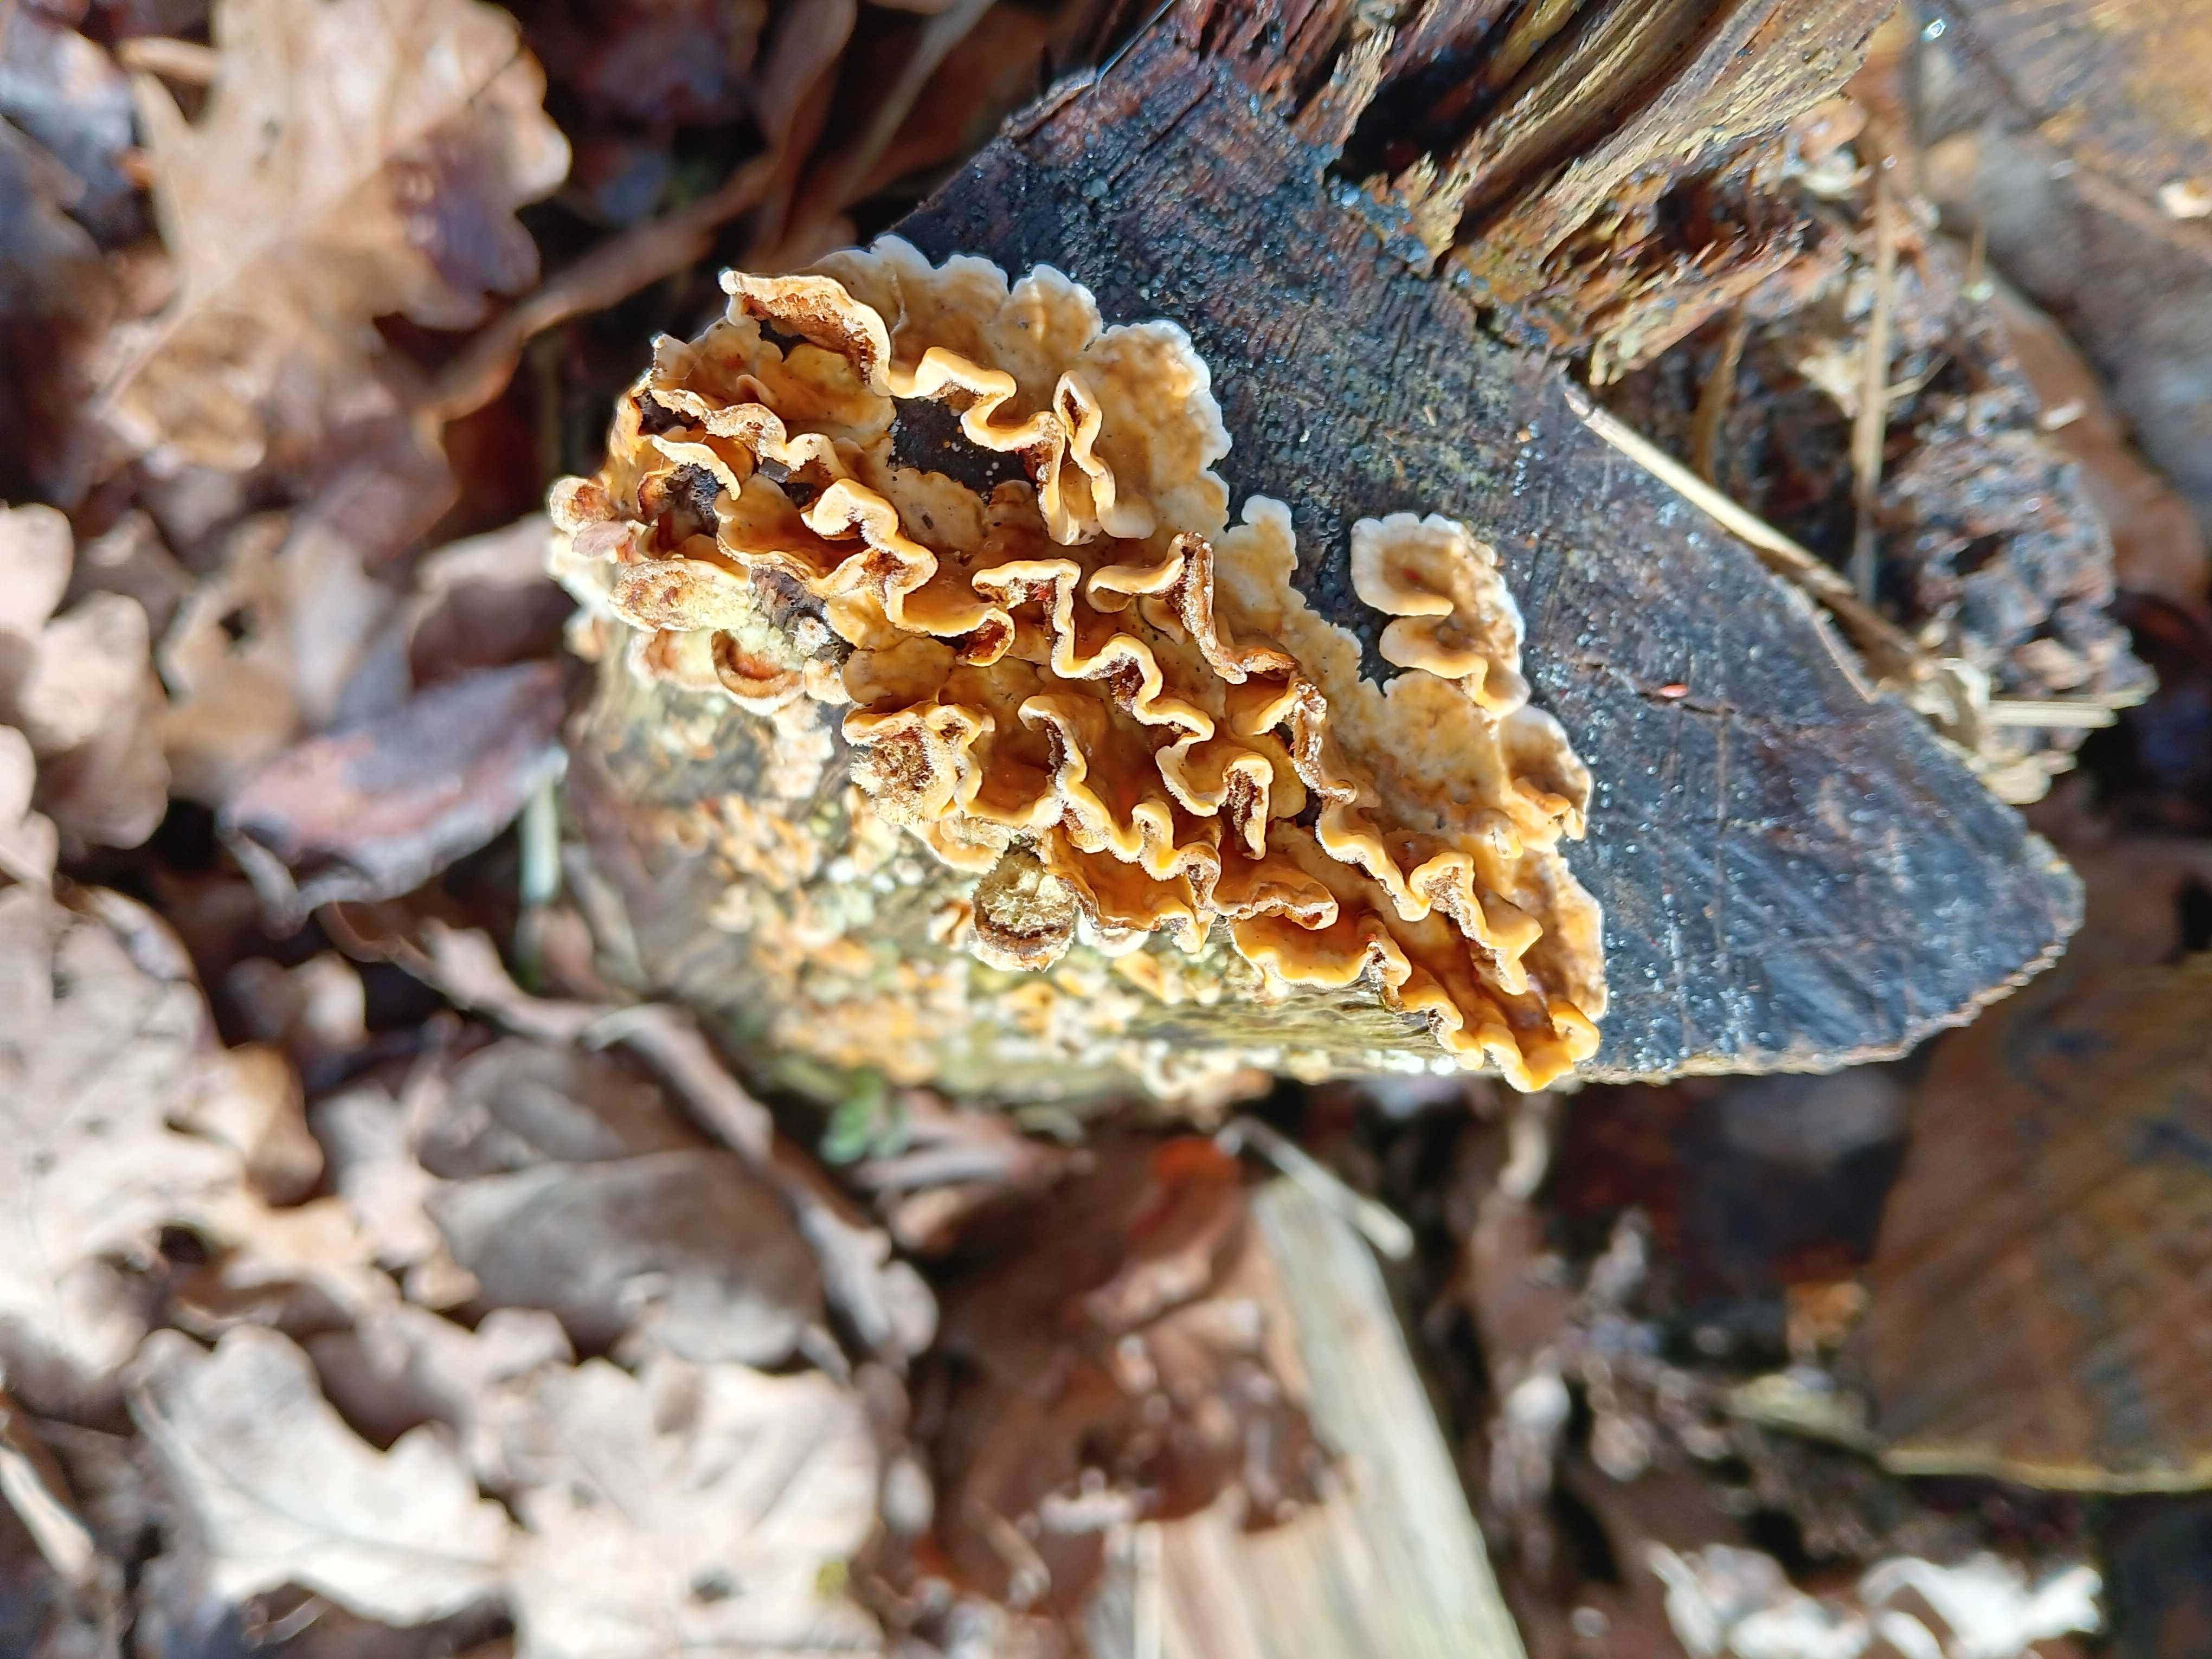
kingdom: Fungi
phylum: Basidiomycota
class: Agaricomycetes
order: Russulales
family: Stereaceae
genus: Stereum
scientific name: Stereum hirsutum
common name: håret lædersvamp
